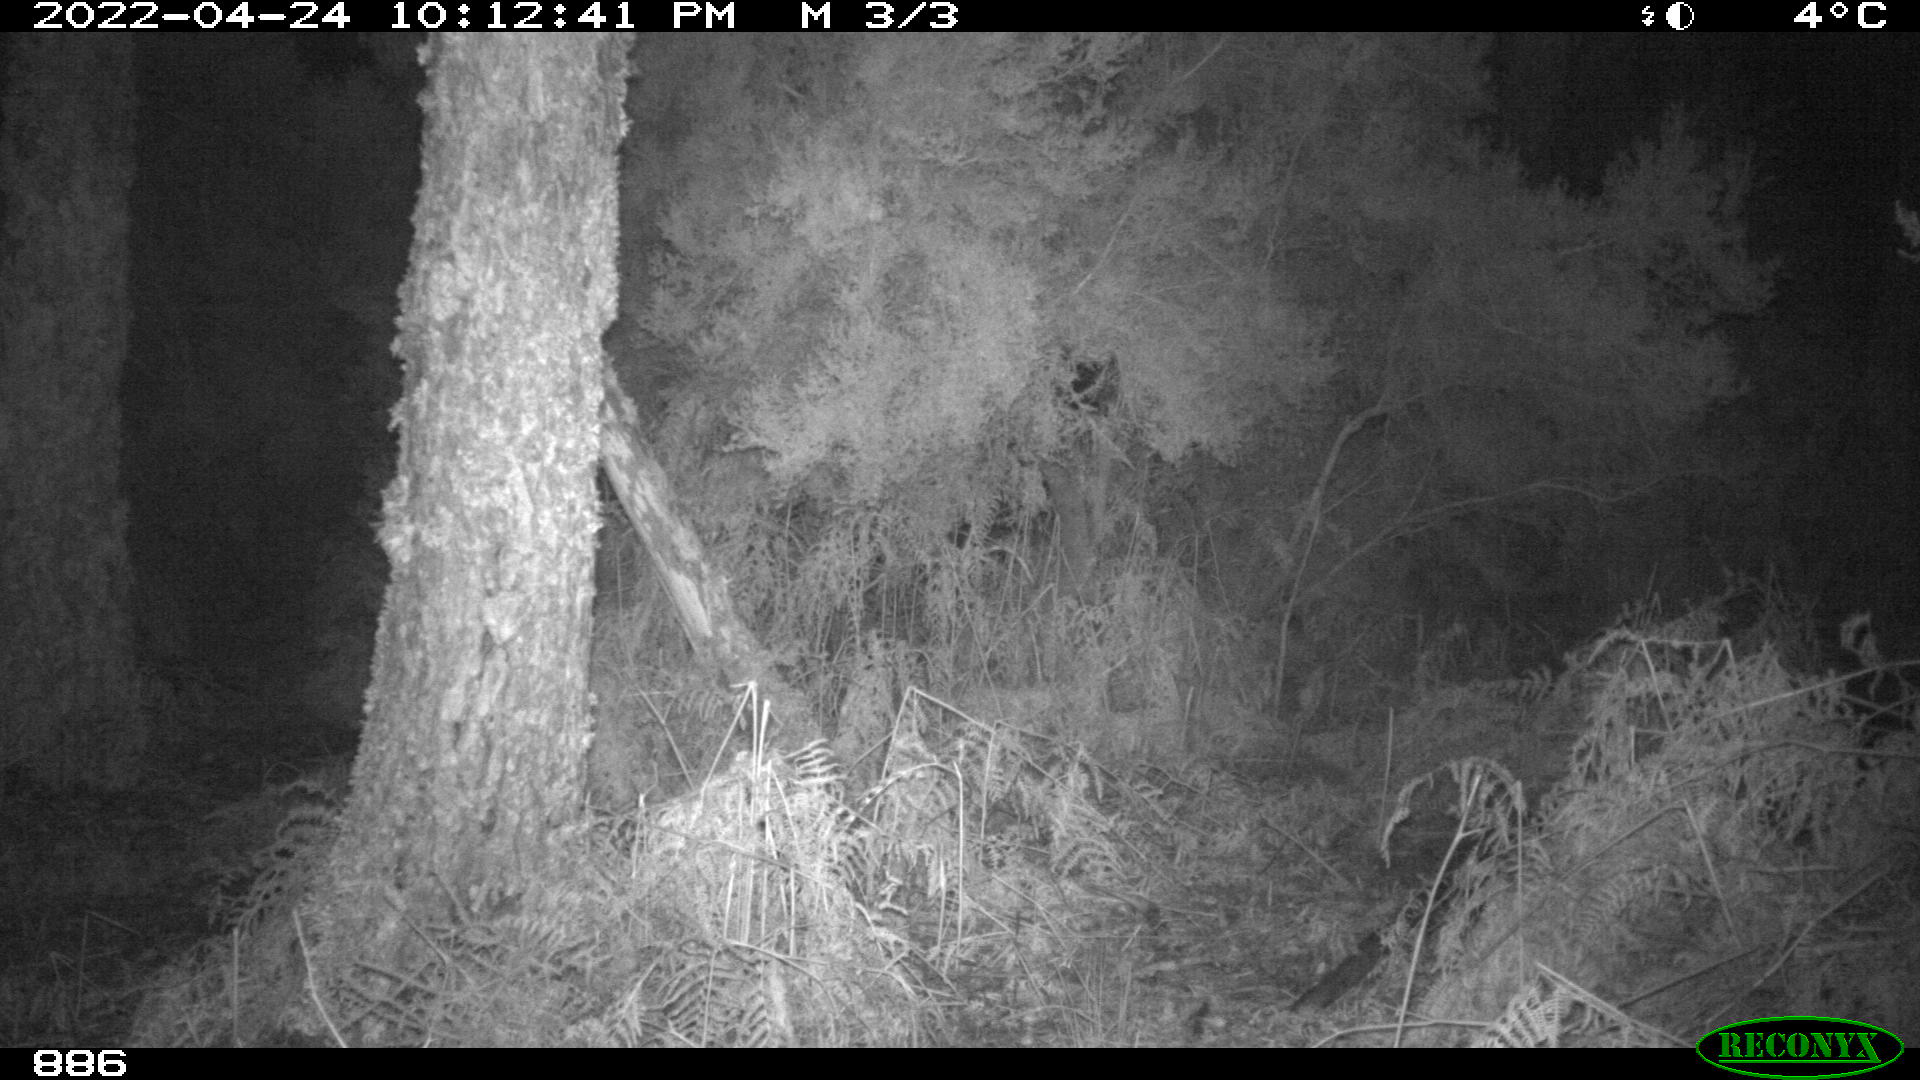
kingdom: Animalia
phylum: Chordata
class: Mammalia
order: Perissodactyla
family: Equidae
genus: Equus
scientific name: Equus caballus
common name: Horse
